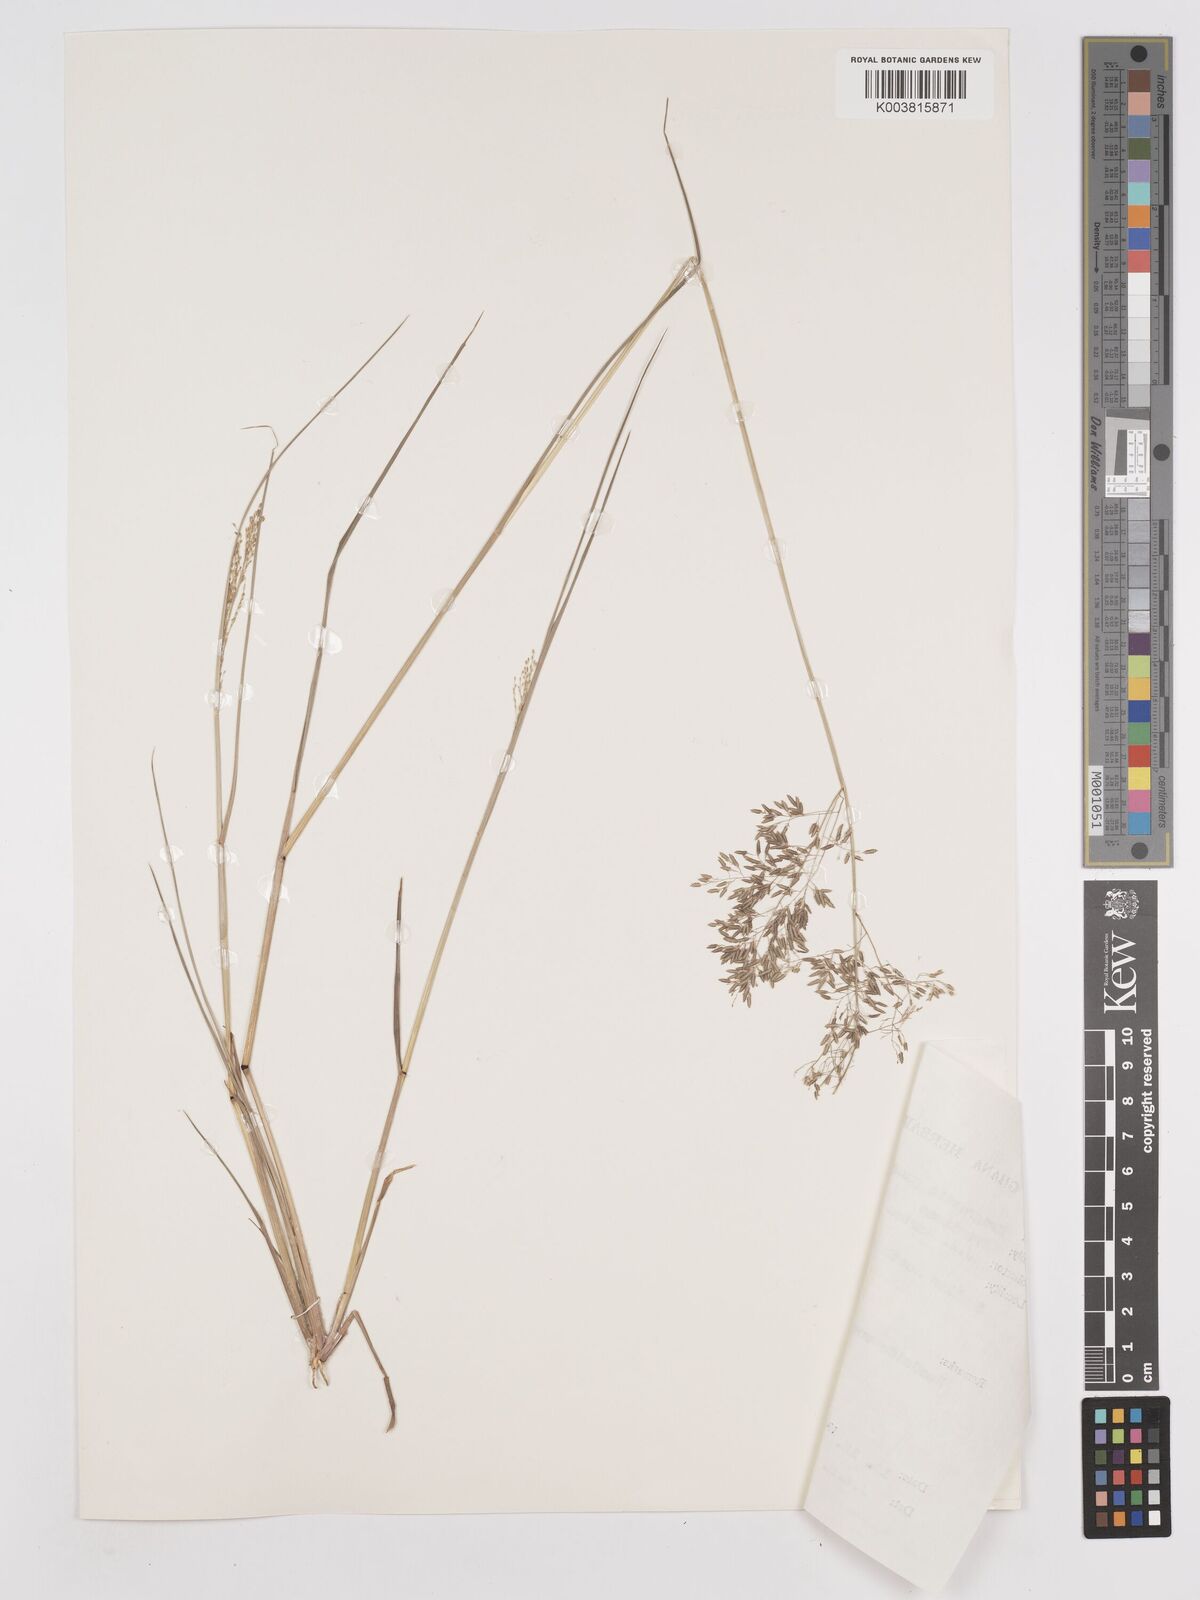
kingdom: Plantae
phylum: Tracheophyta
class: Liliopsida
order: Poales
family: Poaceae
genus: Eragrostis
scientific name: Eragrostis gangetica
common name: Slimflower lovegrass
